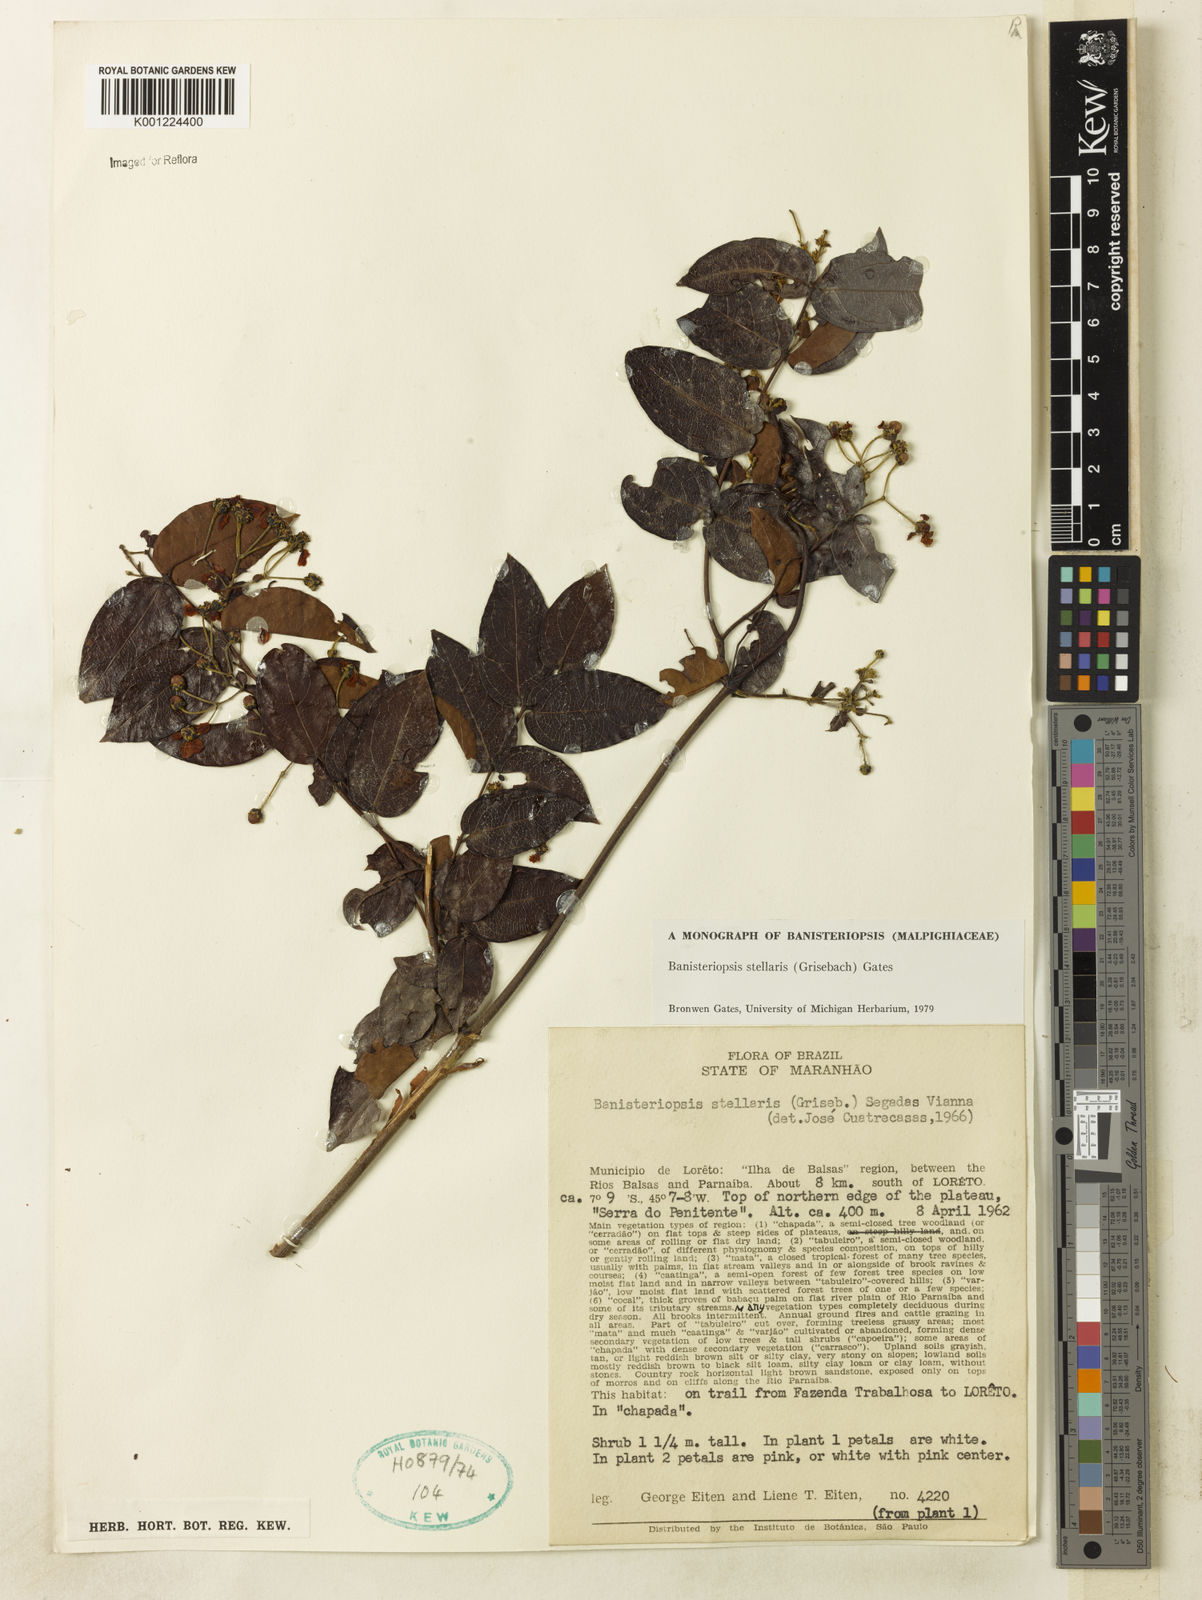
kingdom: Plantae
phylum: Tracheophyta
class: Magnoliopsida
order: Malpighiales
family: Malpighiaceae
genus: Banisteriopsis
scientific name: Banisteriopsis stellaris
